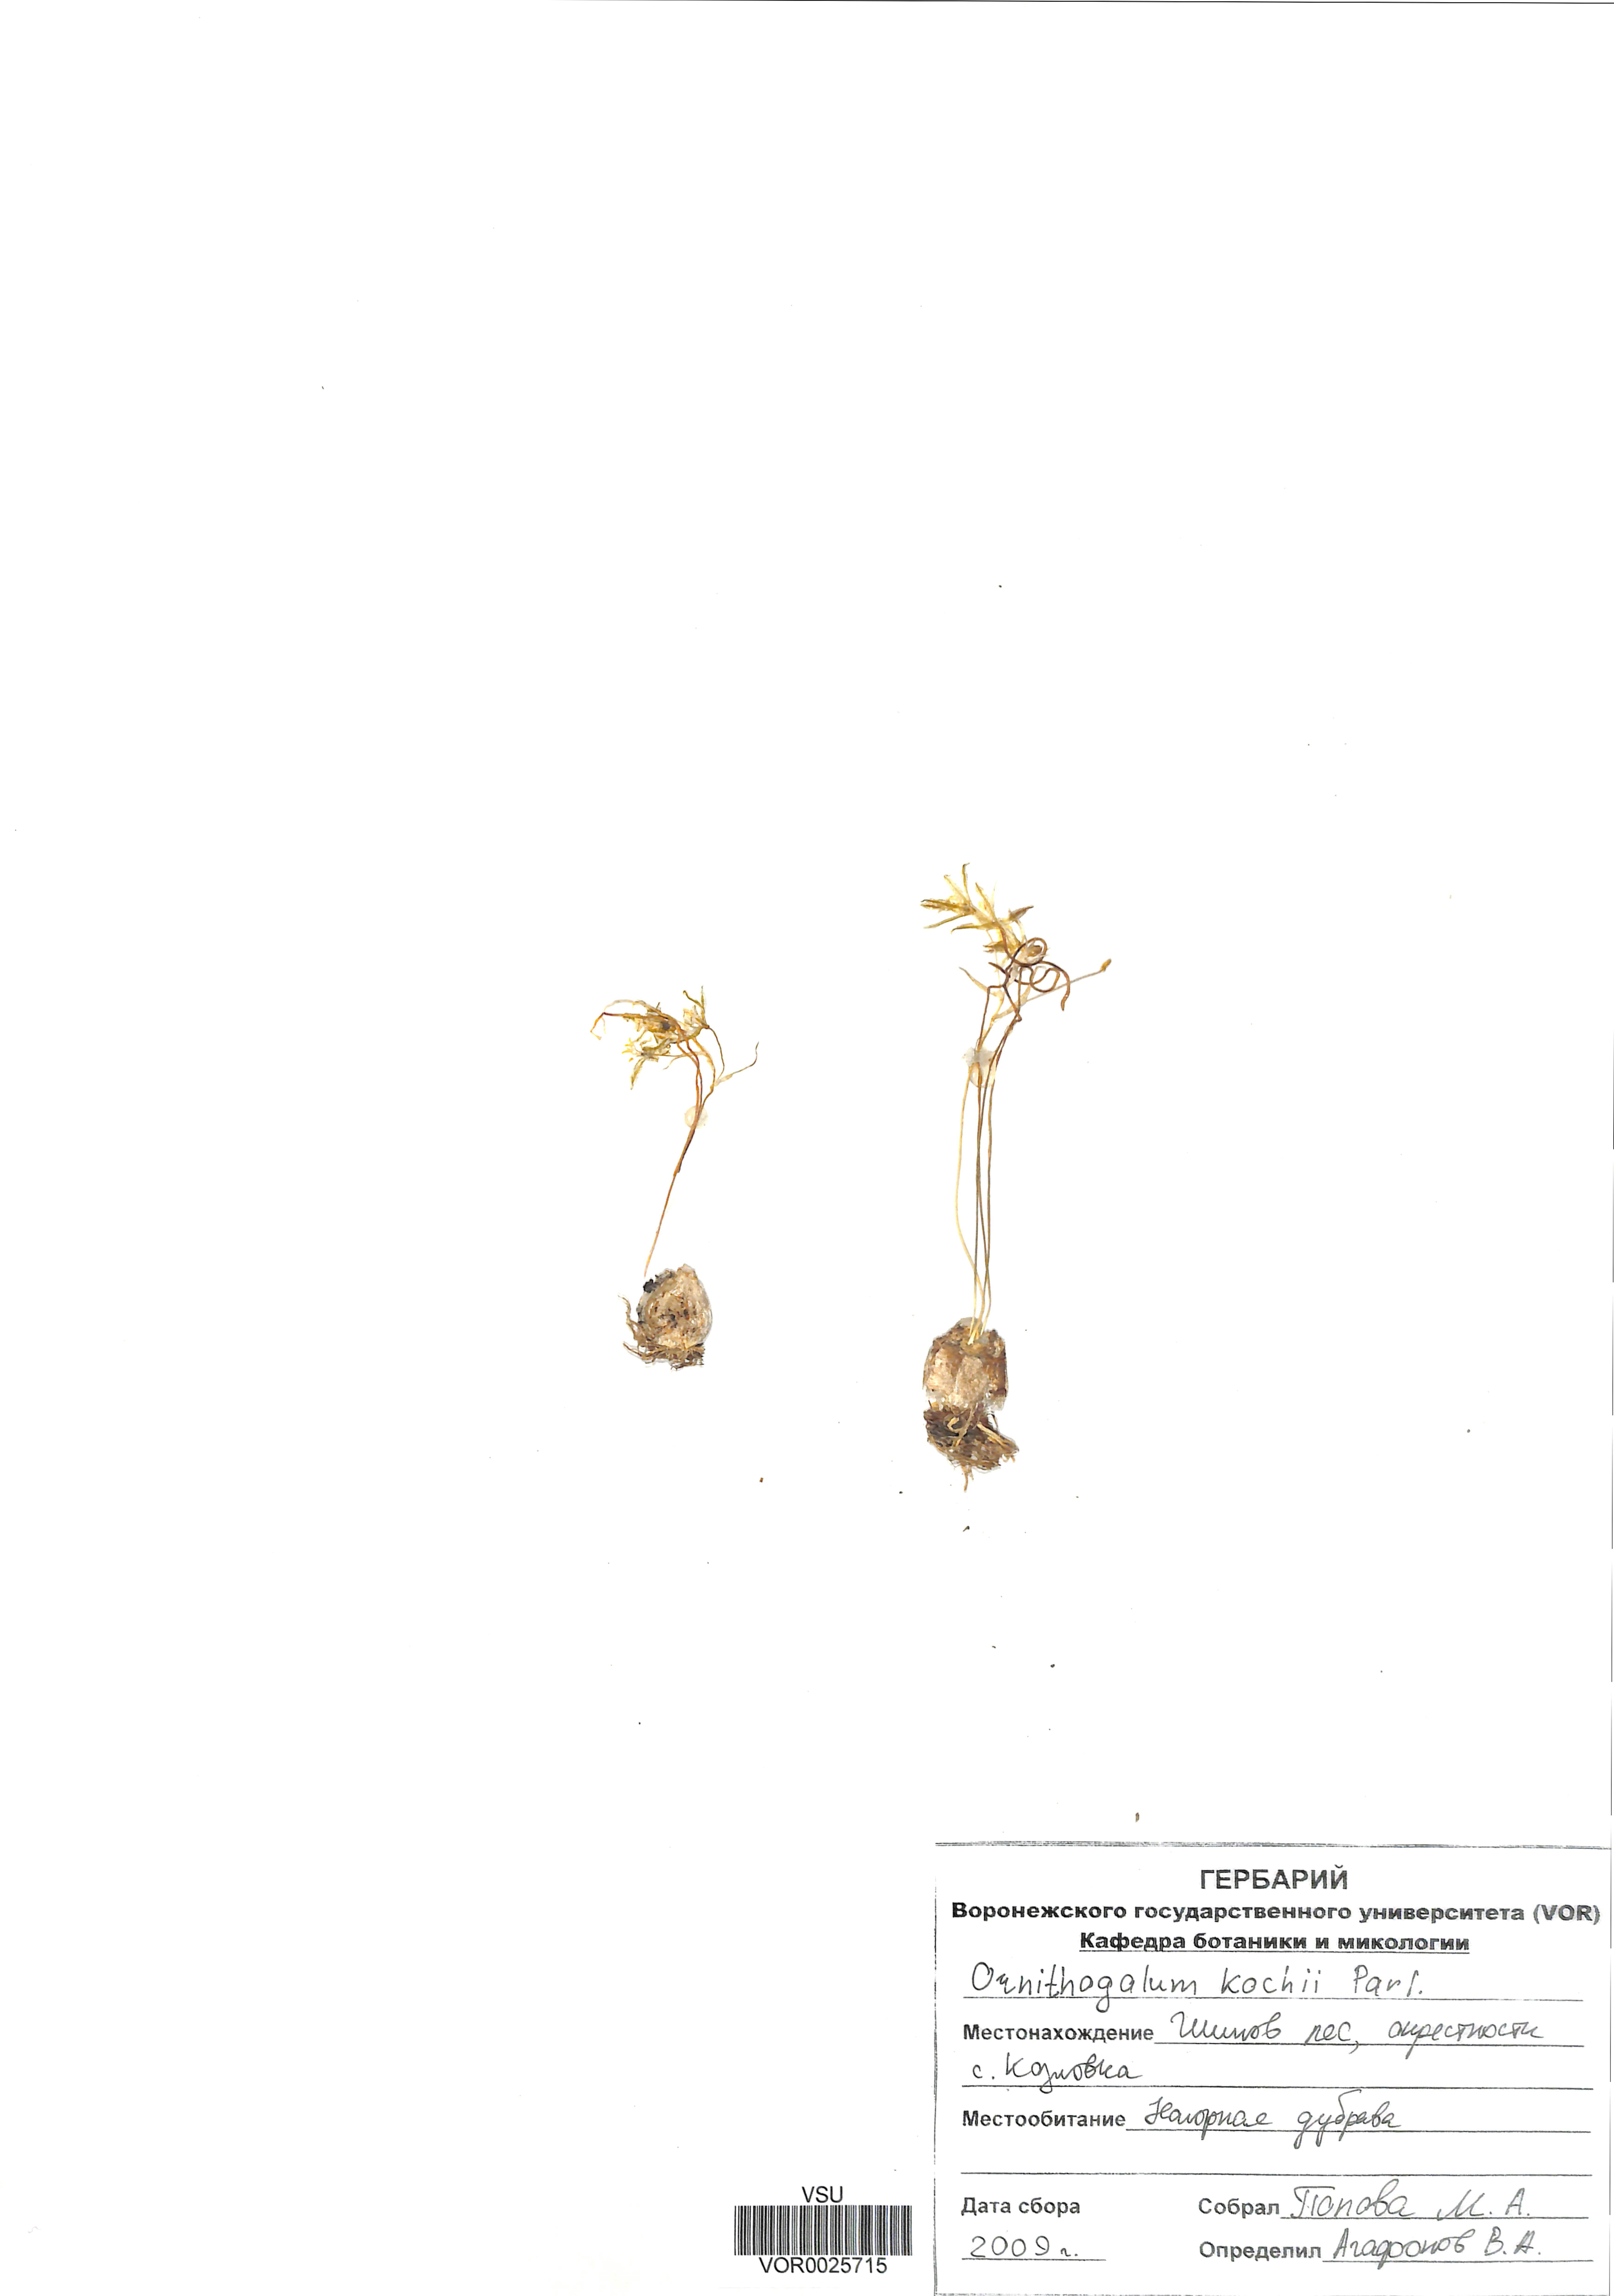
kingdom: Plantae
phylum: Tracheophyta
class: Liliopsida
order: Asparagales
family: Asparagaceae
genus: Ornithogalum
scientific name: Ornithogalum orthophyllum
